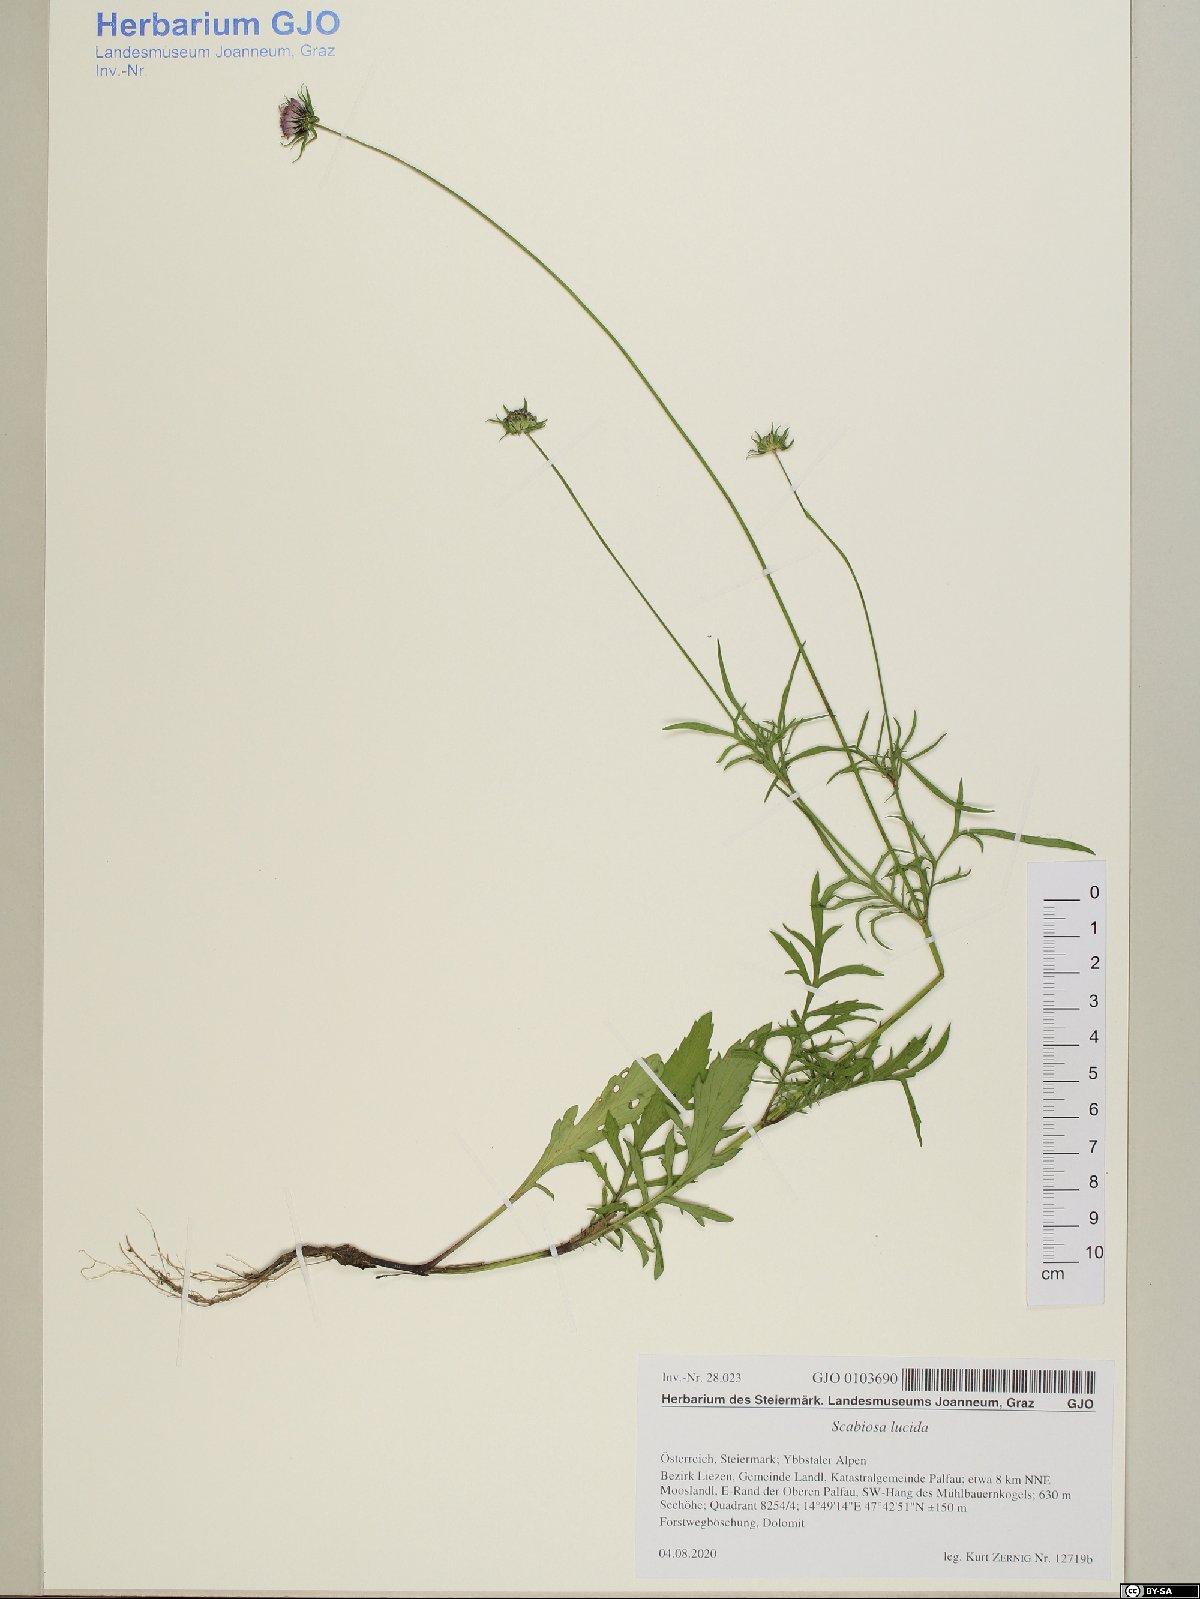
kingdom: Plantae
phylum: Tracheophyta
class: Magnoliopsida
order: Dipsacales
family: Caprifoliaceae
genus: Scabiosa
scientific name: Scabiosa lucida
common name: Shining scabious
